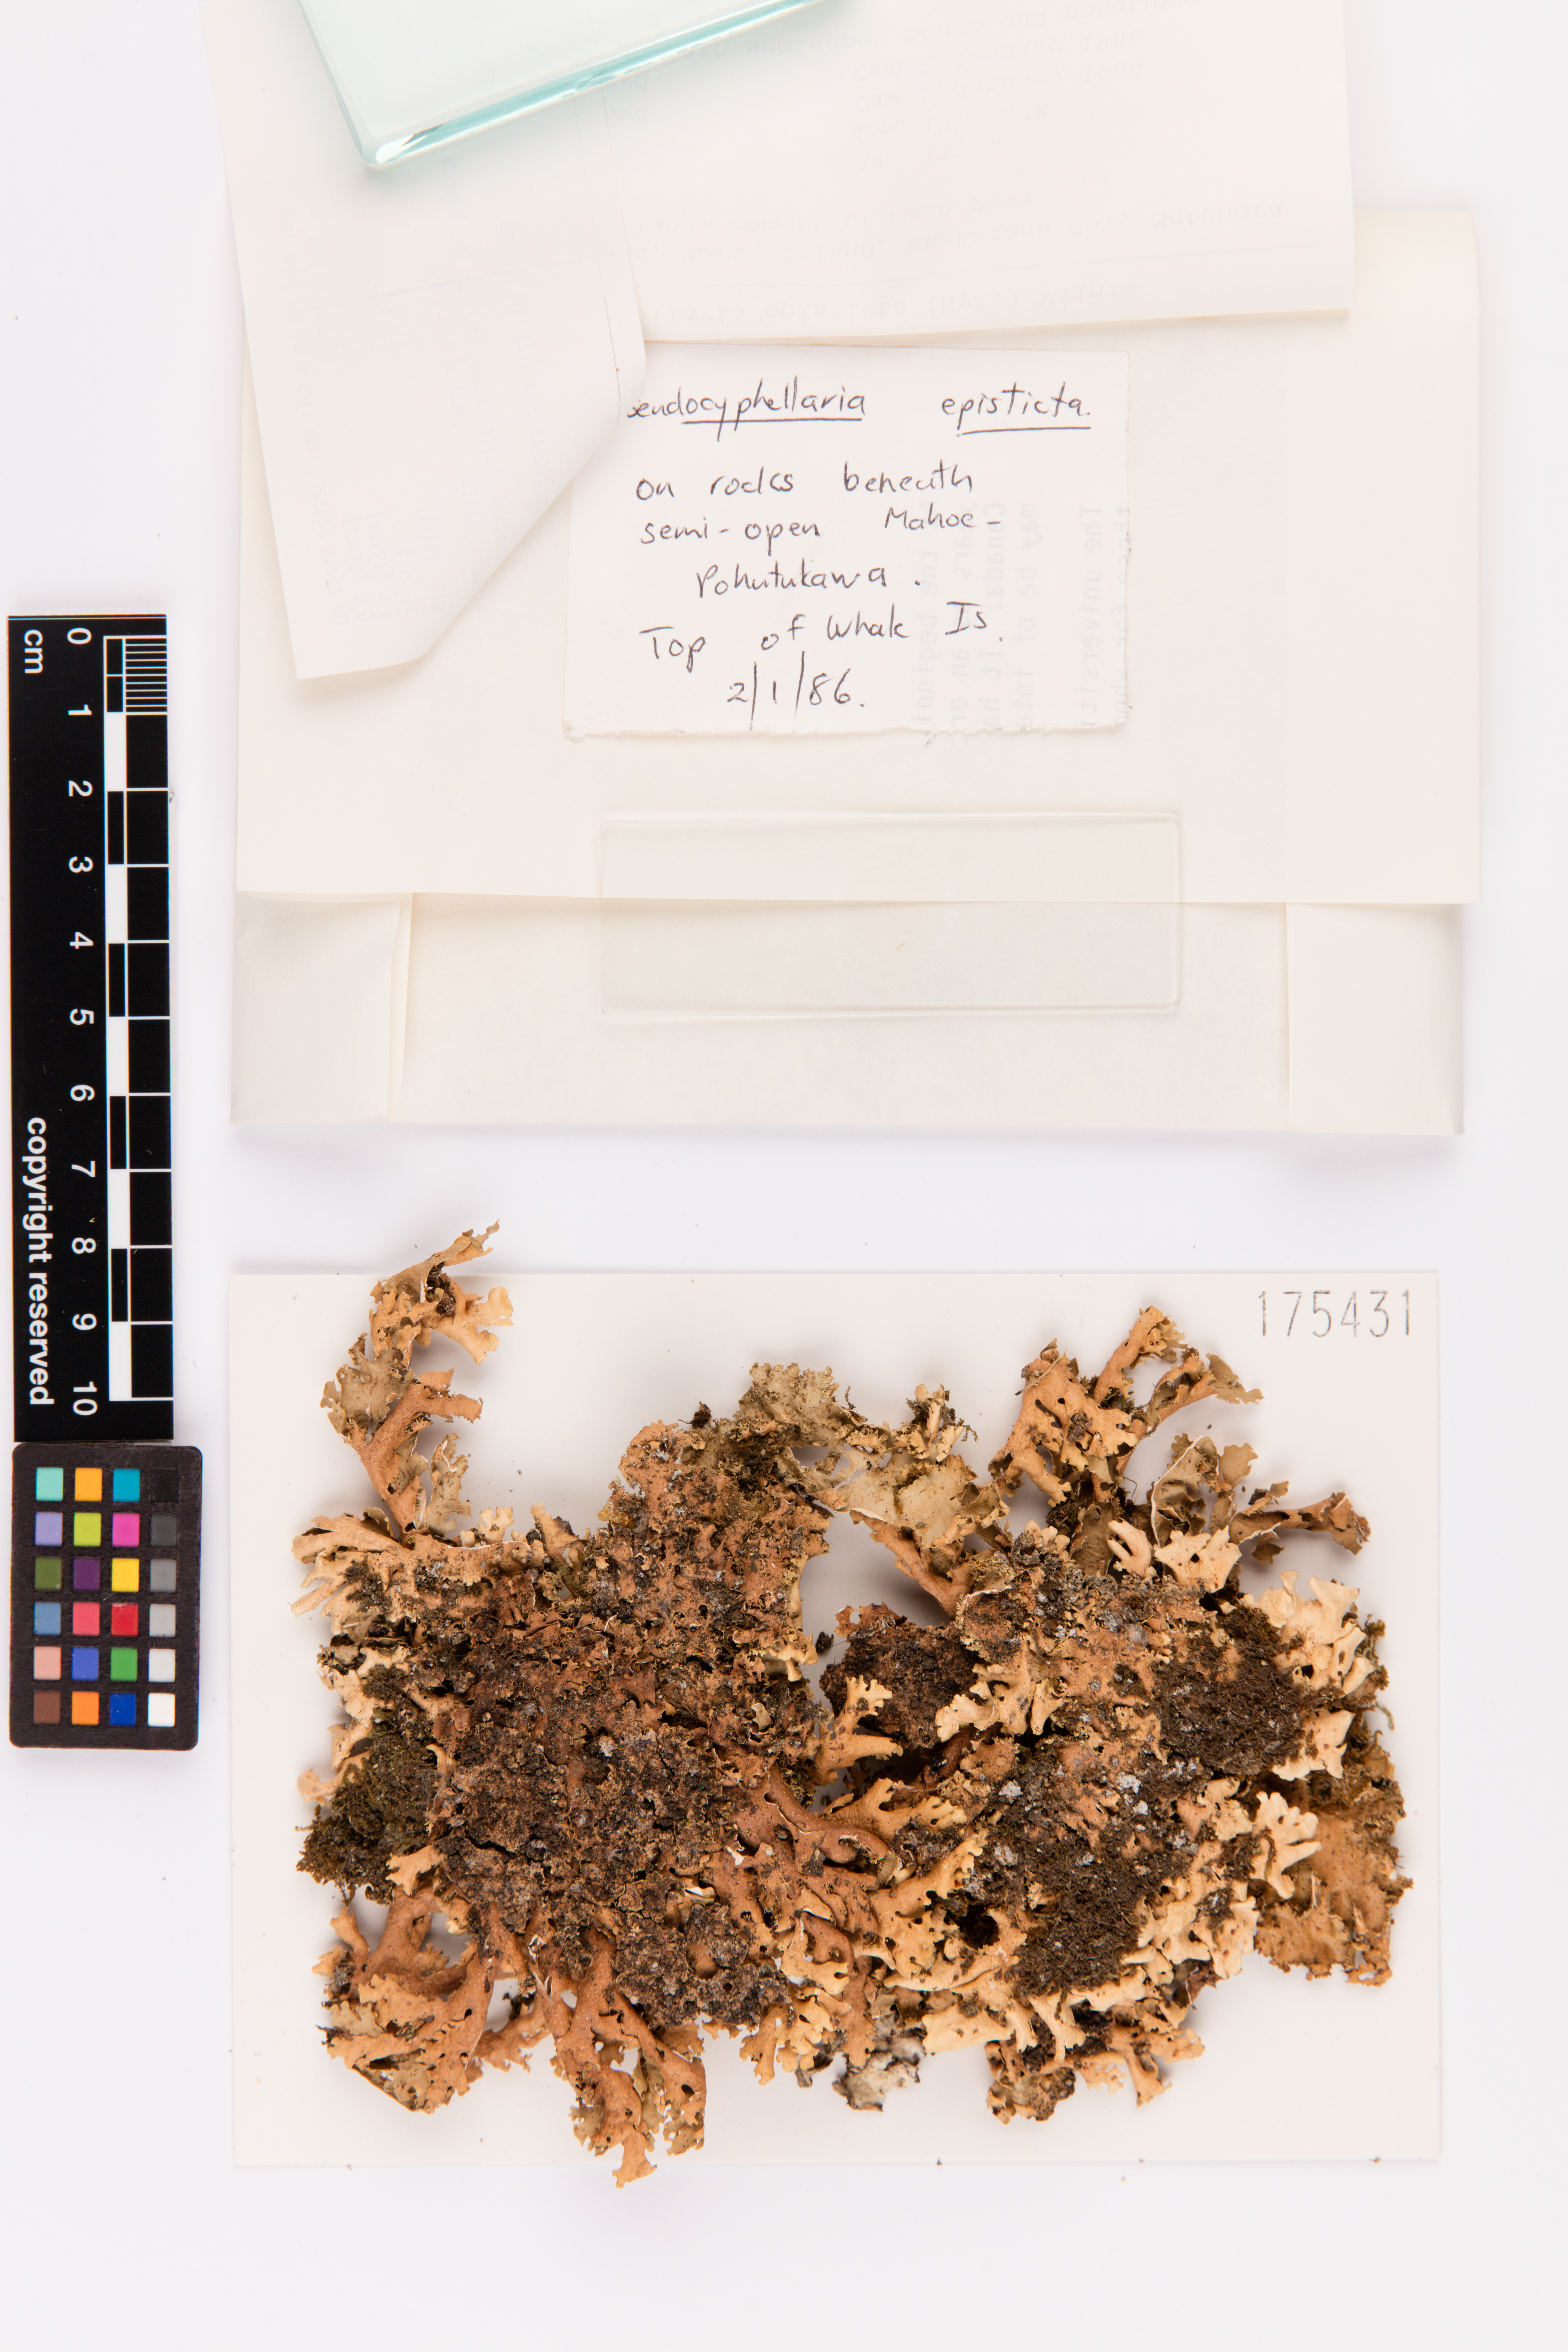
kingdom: Fungi
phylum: Ascomycota
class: Lecanoromycetes
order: Peltigerales
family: Lobariaceae
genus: Pseudocyphellaria
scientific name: Pseudocyphellaria episticta
